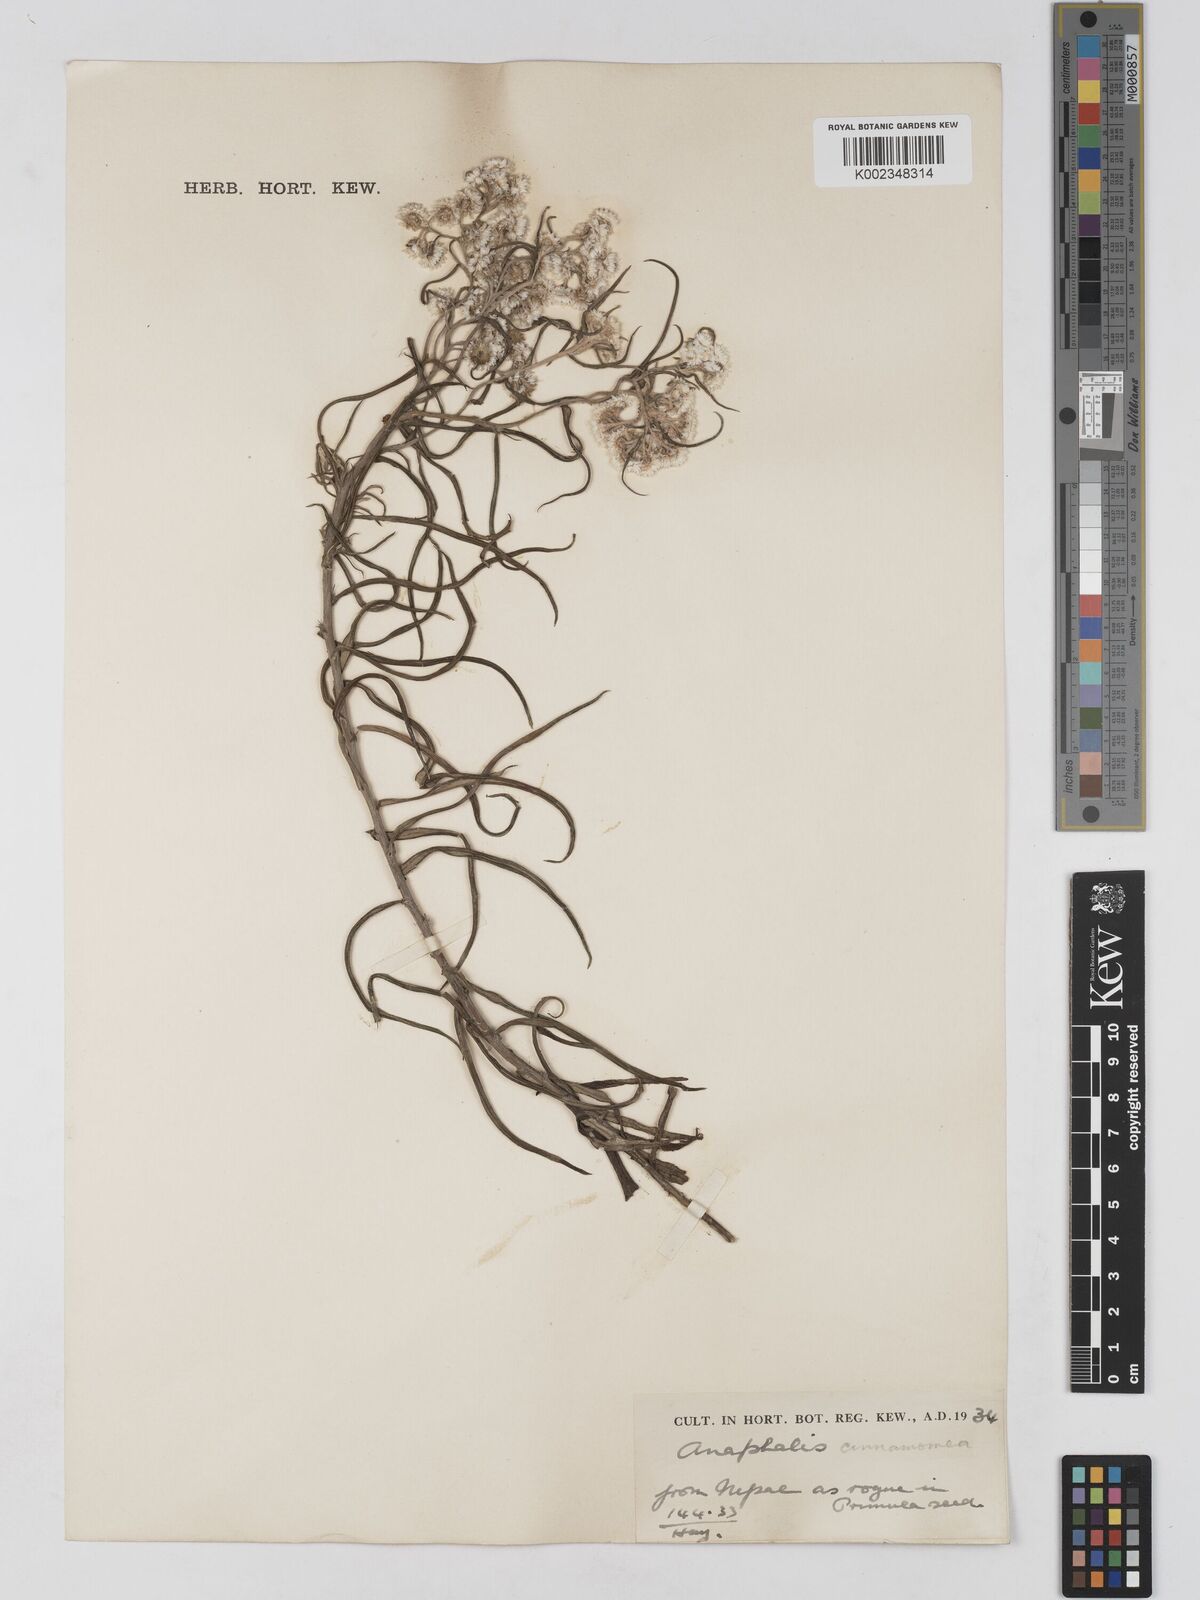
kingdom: Plantae
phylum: Tracheophyta
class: Magnoliopsida
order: Asterales
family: Asteraceae
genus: Anaphalis
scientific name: Anaphalis marcescens
